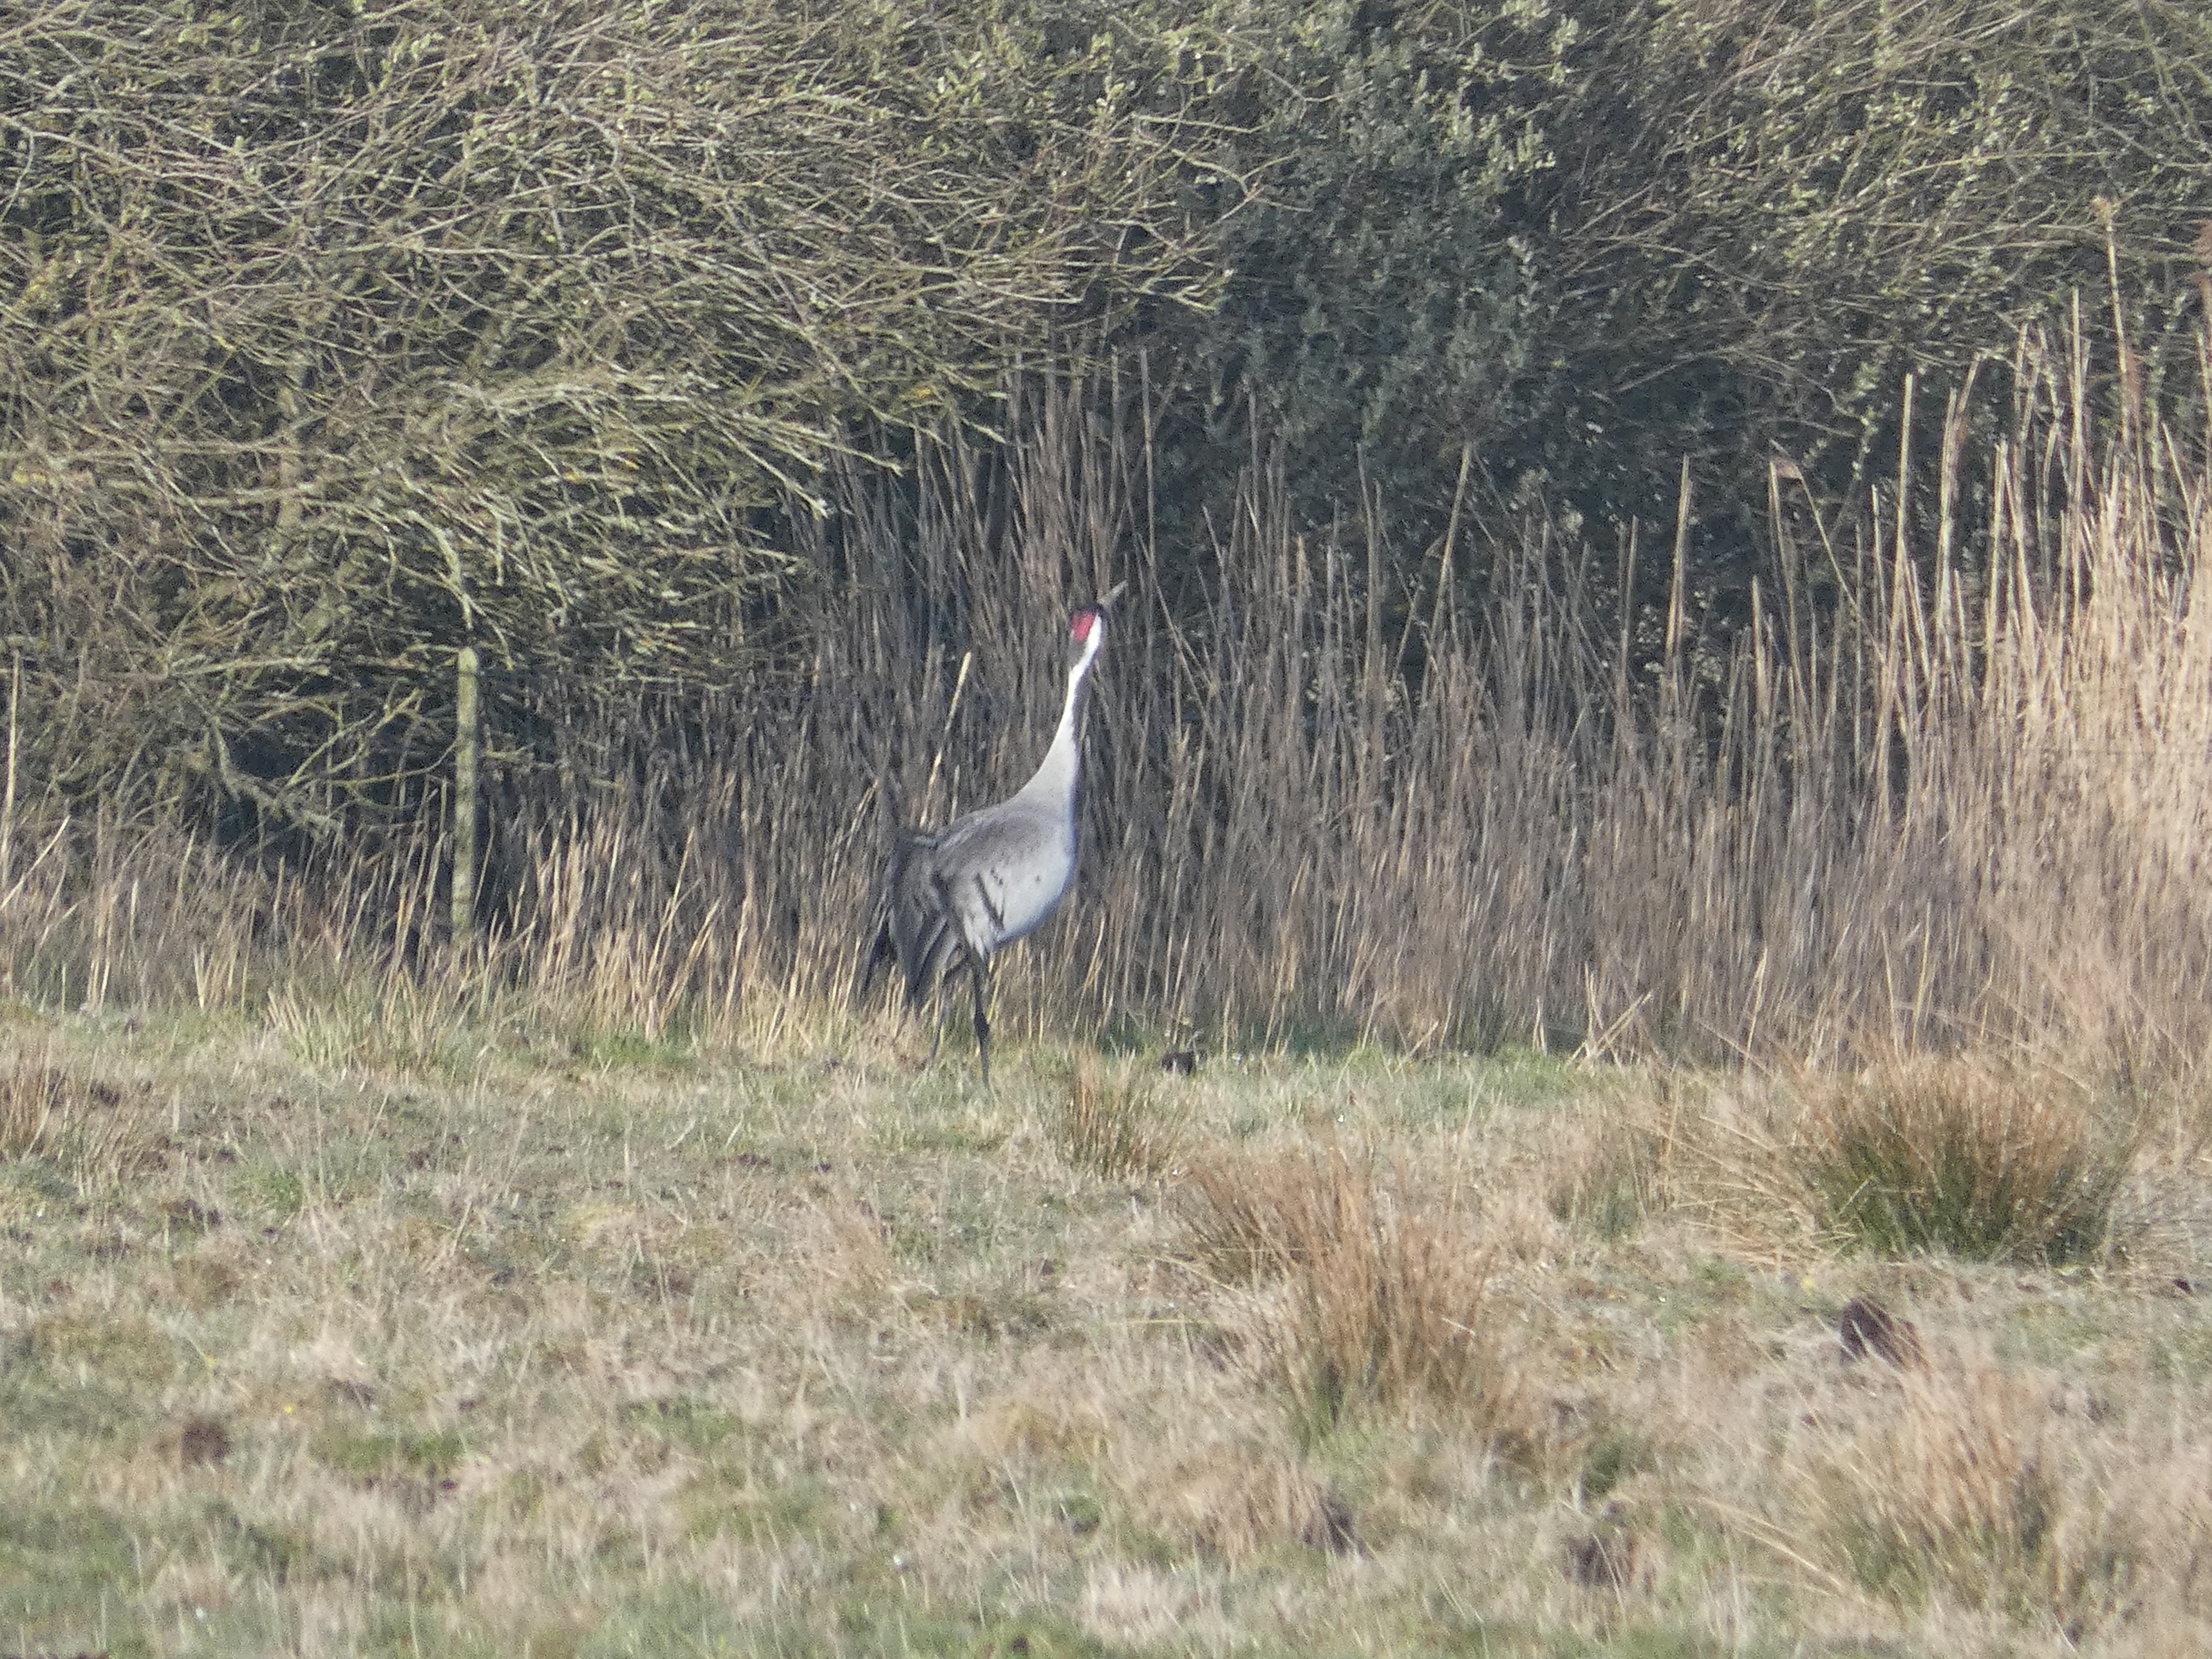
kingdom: Animalia
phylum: Chordata
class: Aves
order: Gruiformes
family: Gruidae
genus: Grus
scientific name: Grus grus
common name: Trane
